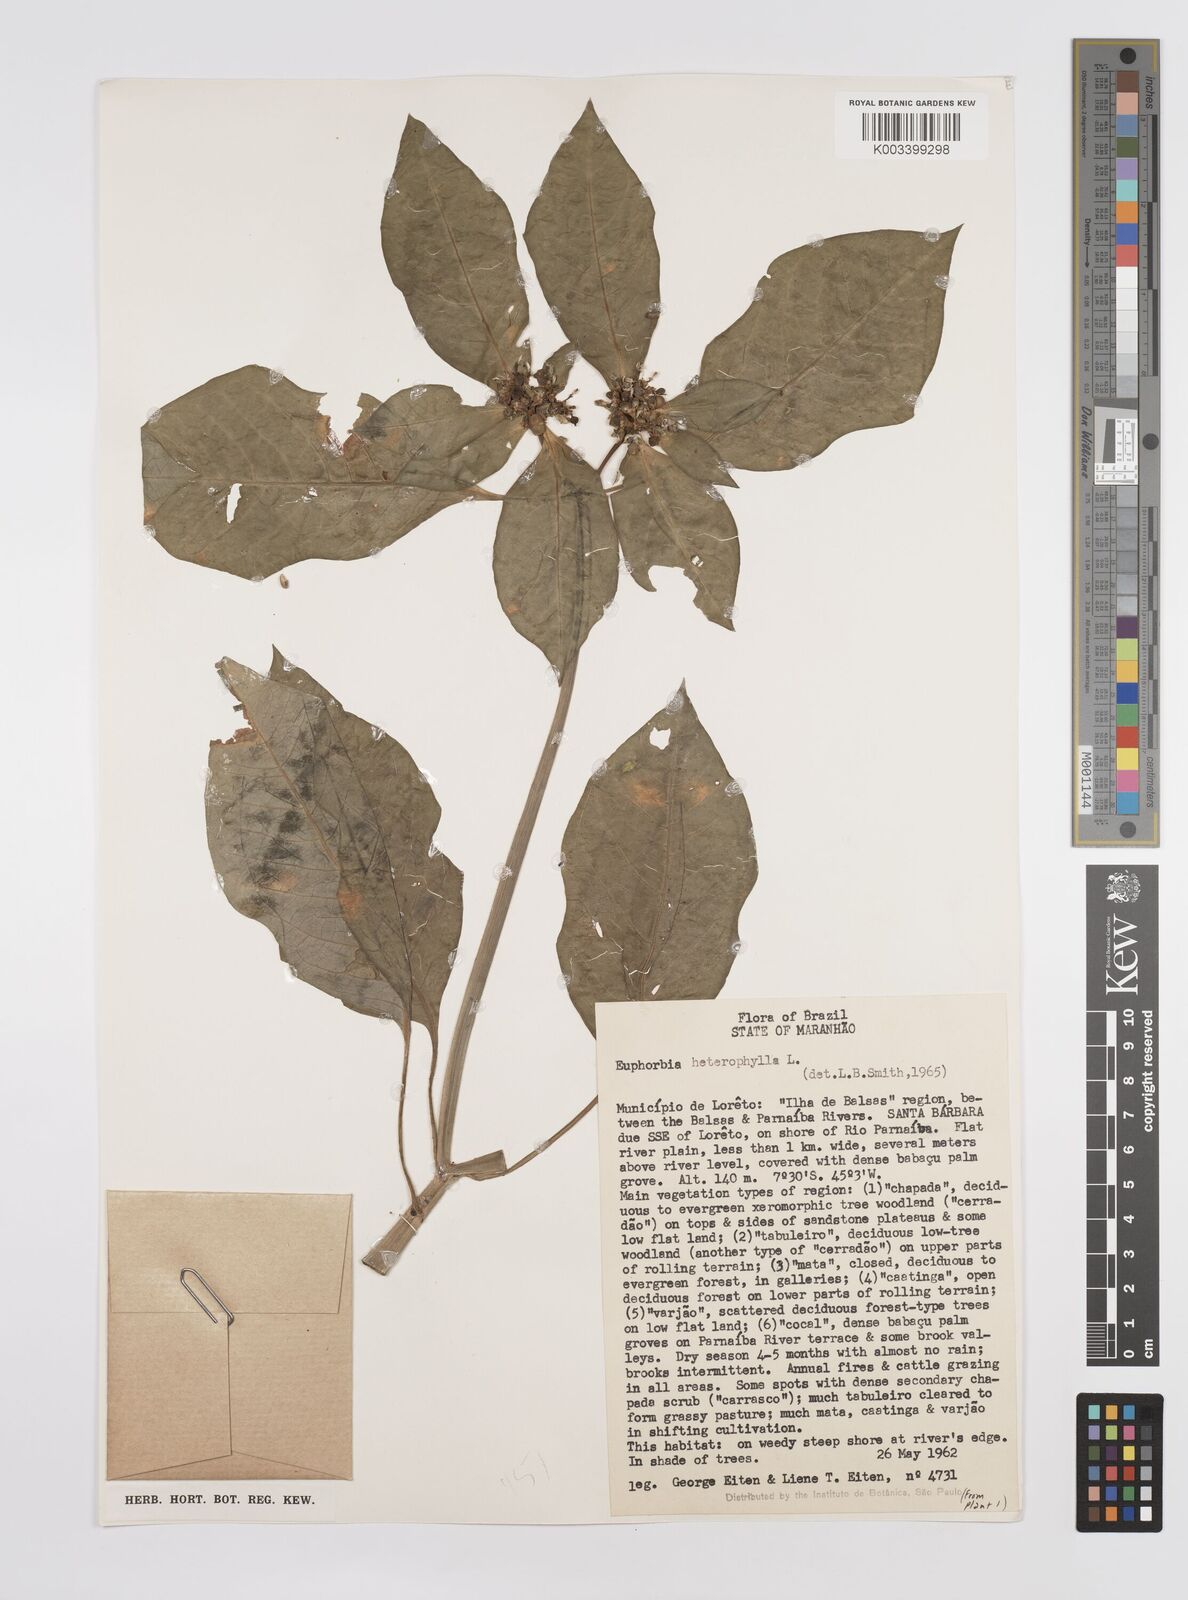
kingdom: Plantae
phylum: Tracheophyta
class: Magnoliopsida
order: Malpighiales
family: Euphorbiaceae
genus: Euphorbia
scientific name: Euphorbia heterophylla
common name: Mexican fireplant
